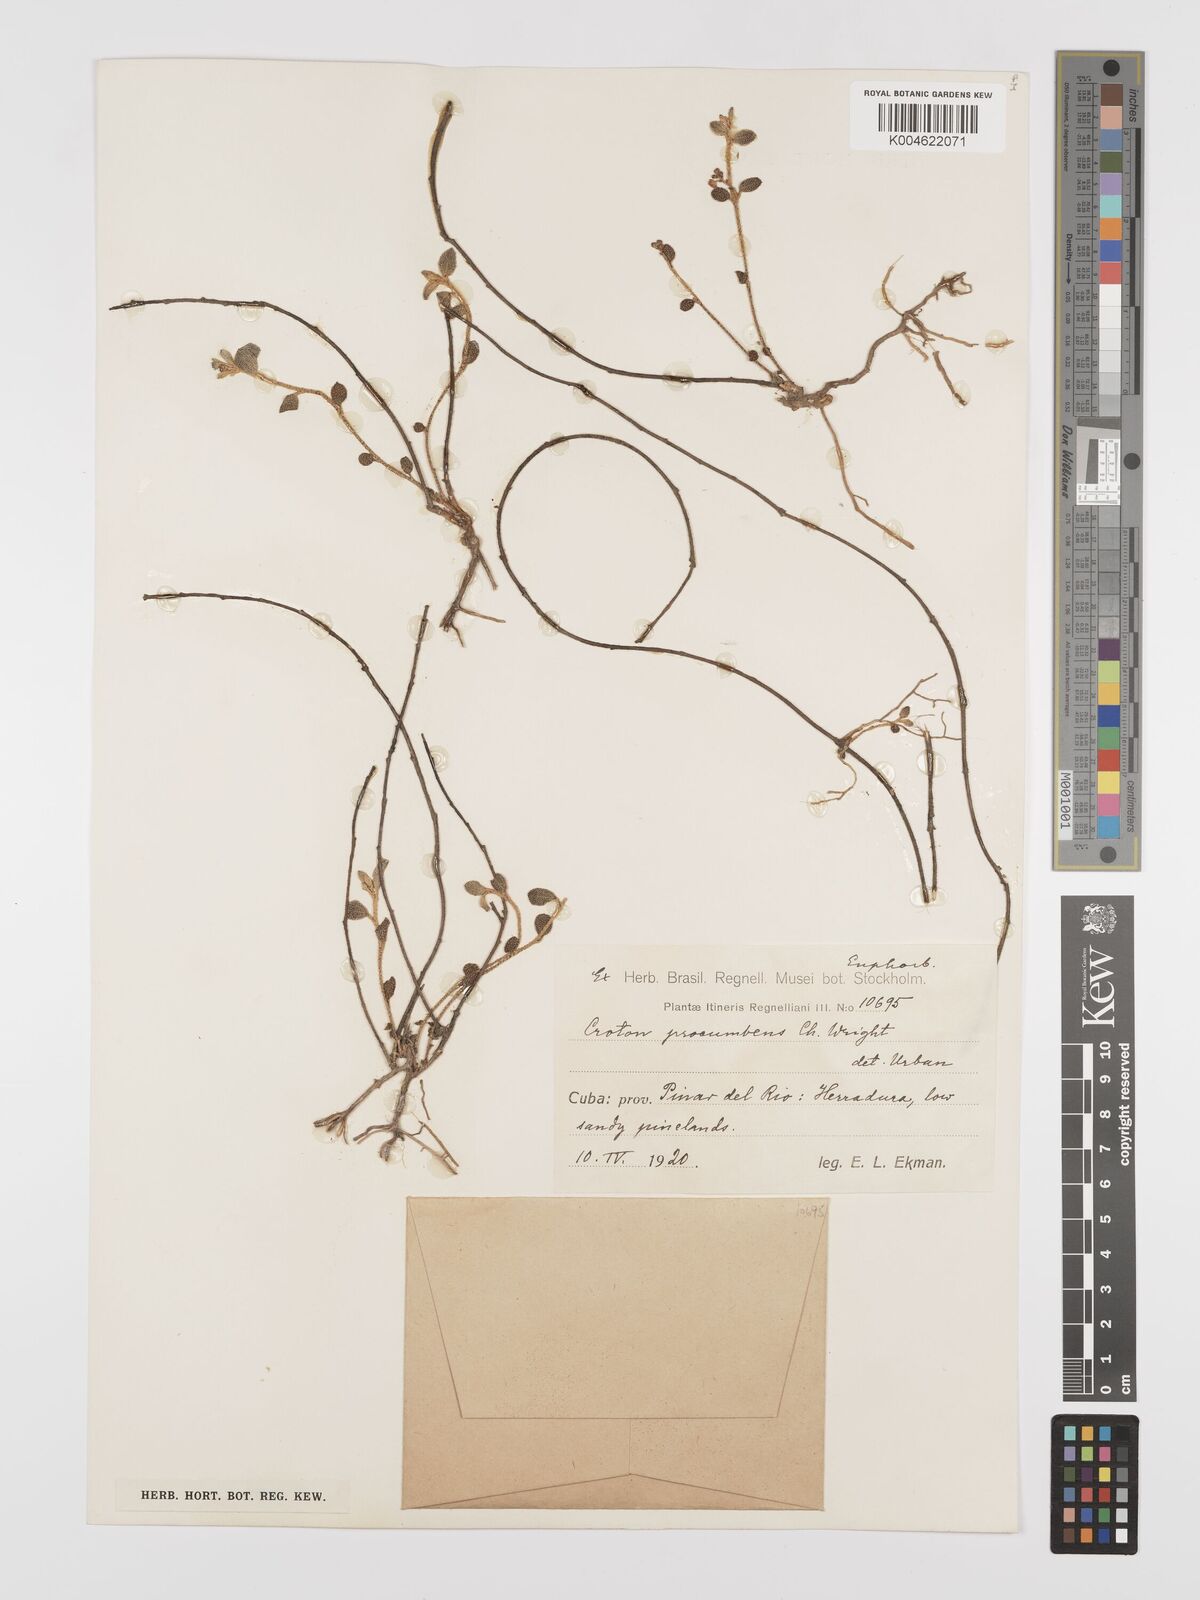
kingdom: Plantae
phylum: Tracheophyta
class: Magnoliopsida
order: Malpighiales
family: Euphorbiaceae
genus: Croton
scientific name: Croton cerinus
